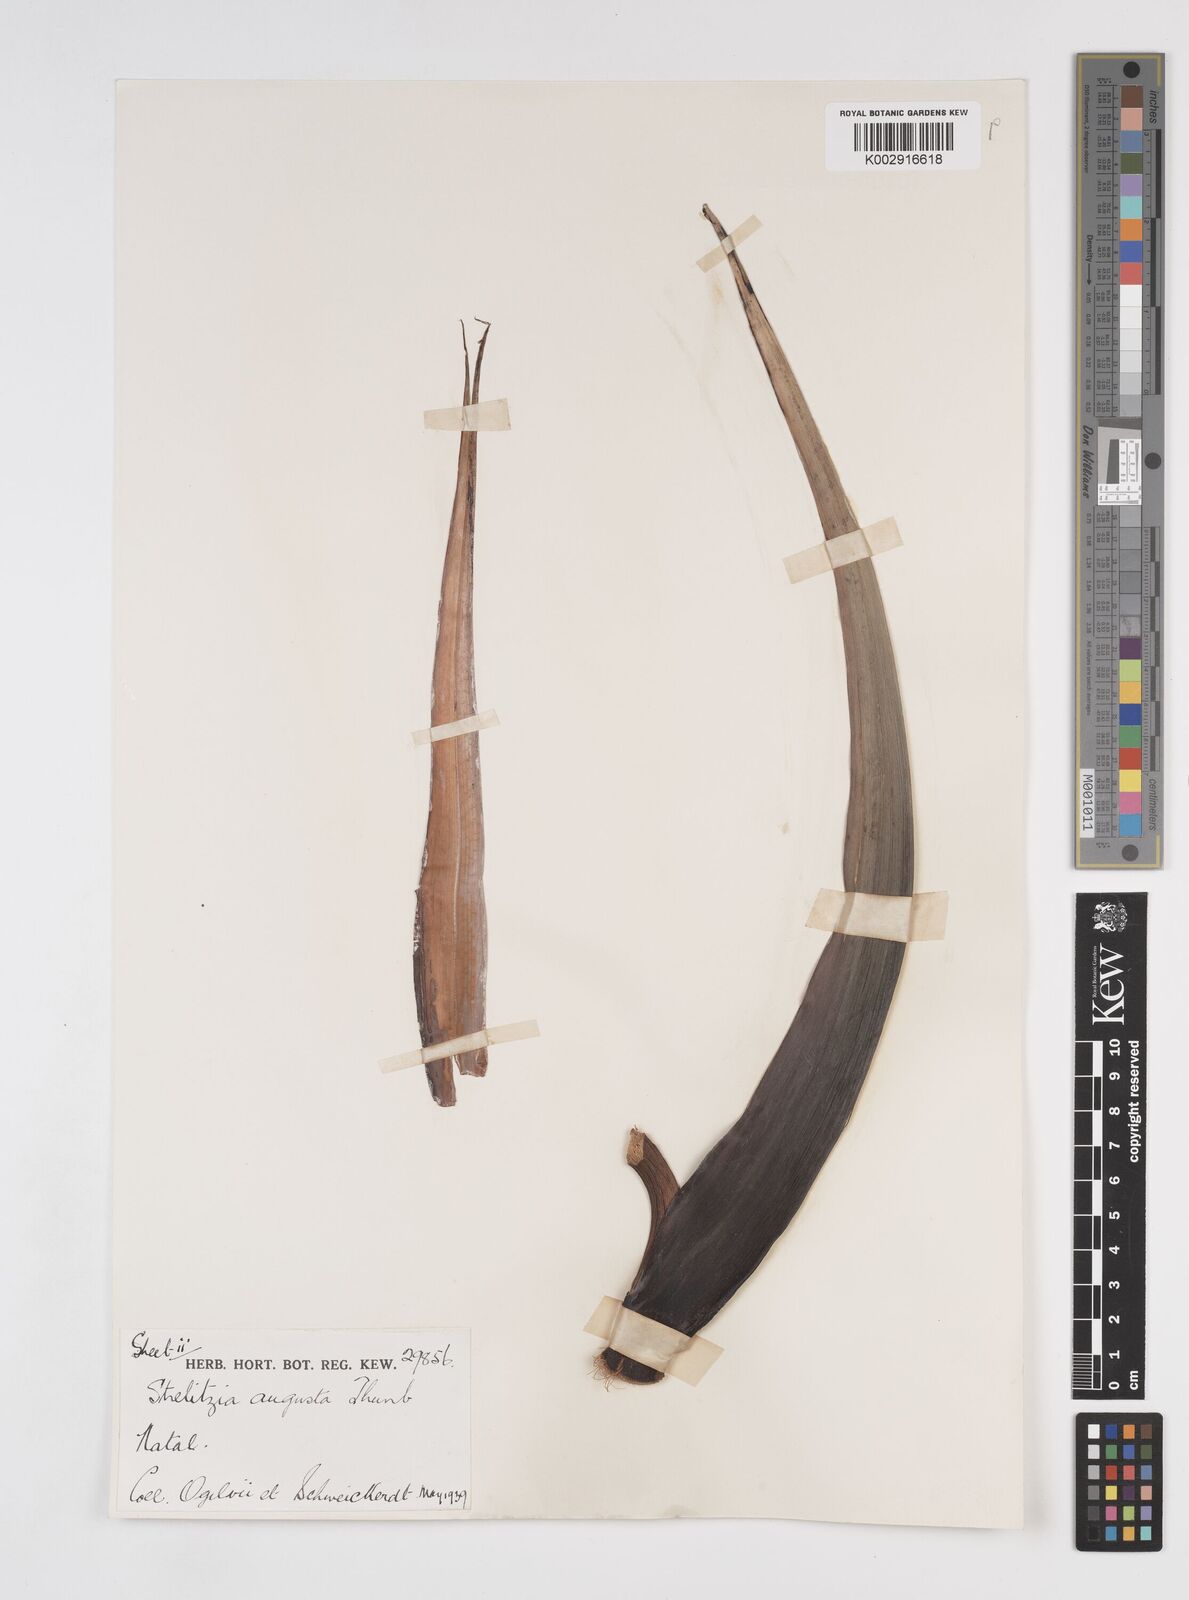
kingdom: Plantae
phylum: Tracheophyta
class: Liliopsida
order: Zingiberales
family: Strelitziaceae
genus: Strelitzia
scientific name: Strelitzia nicolai
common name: Bird-of-paradise tree
